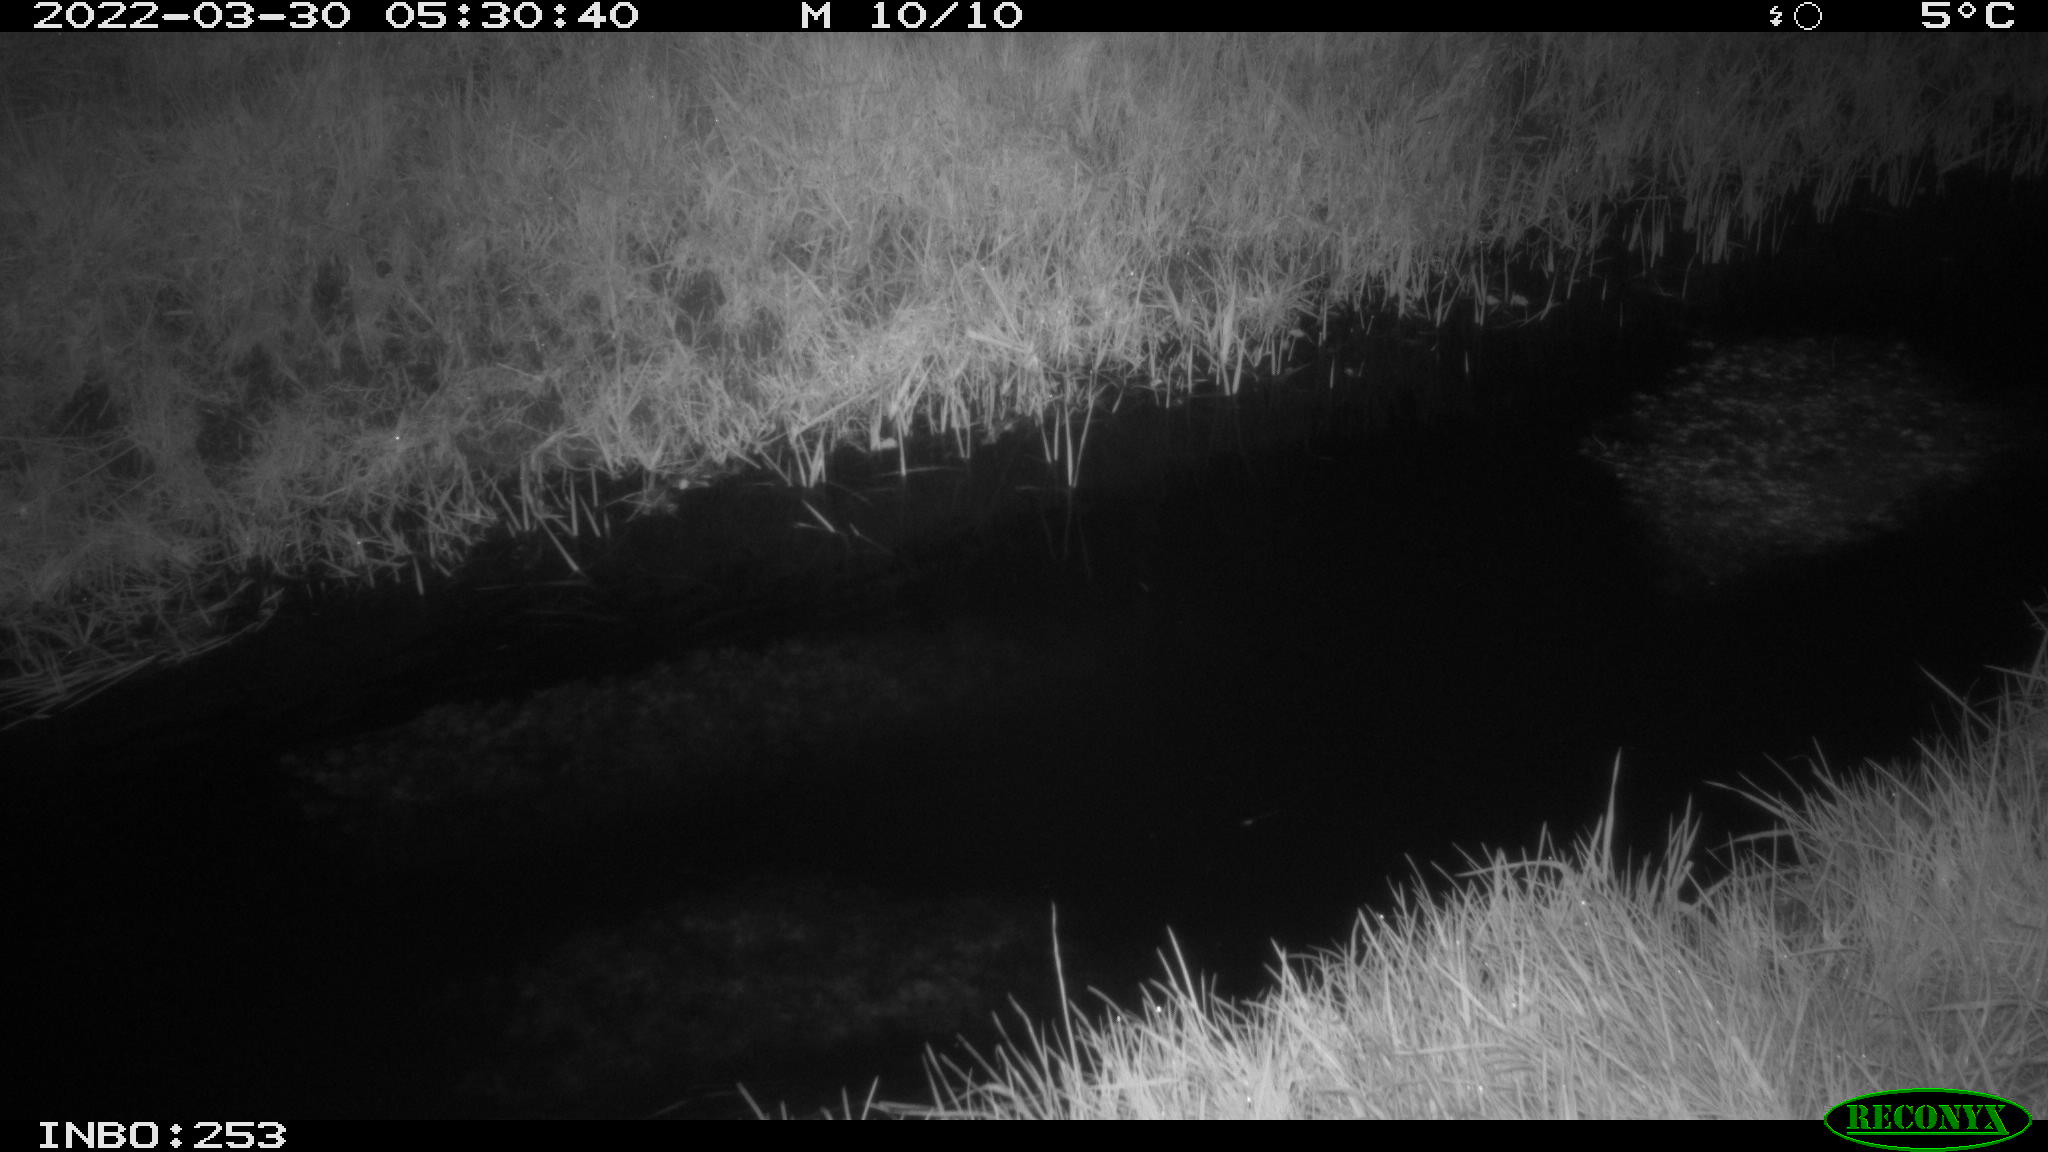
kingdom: Animalia
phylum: Chordata
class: Aves
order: Anseriformes
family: Anatidae
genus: Anas
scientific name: Anas platyrhynchos
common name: Mallard
